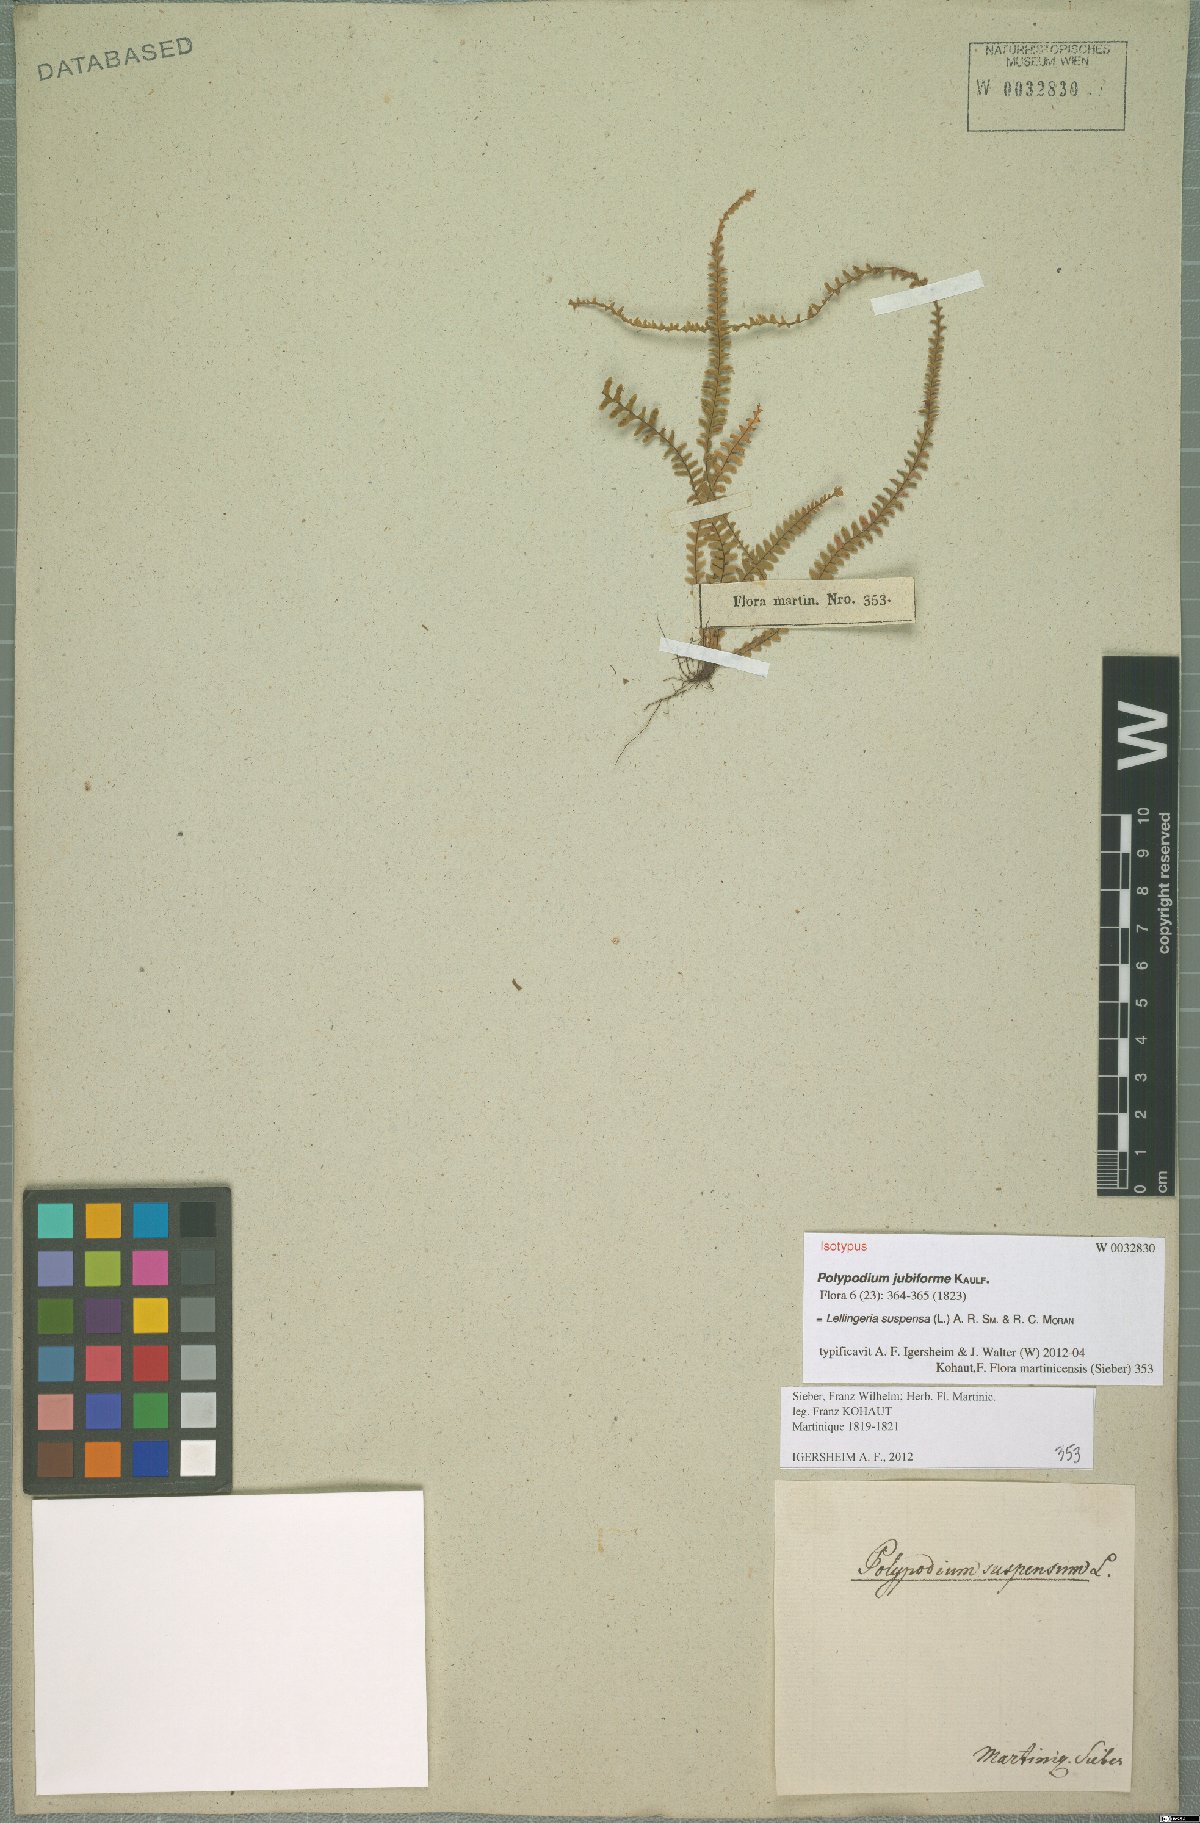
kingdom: Plantae
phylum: Tracheophyta
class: Polypodiopsida
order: Polypodiales
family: Polypodiaceae
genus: Lellingeria
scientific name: Lellingeria suspensa
